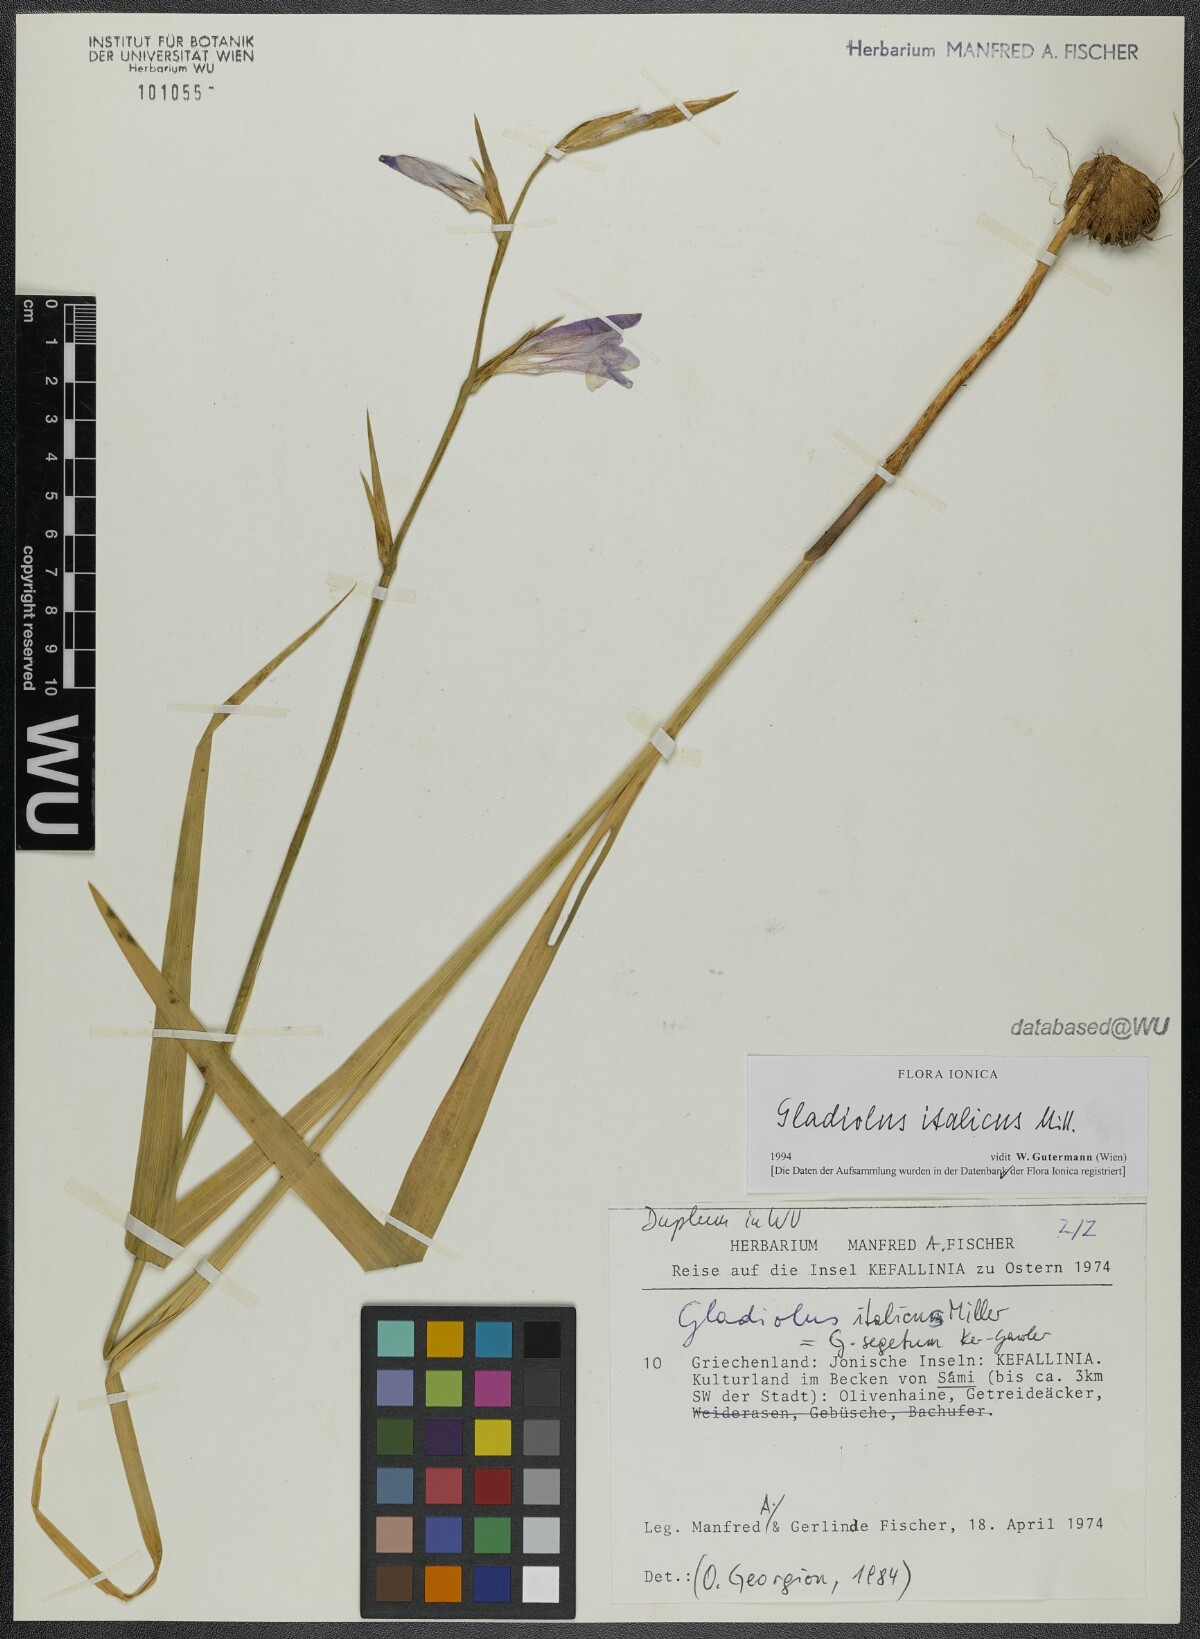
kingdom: Plantae
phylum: Tracheophyta
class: Liliopsida
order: Asparagales
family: Iridaceae
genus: Gladiolus
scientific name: Gladiolus italicus
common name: Field gladiolus
